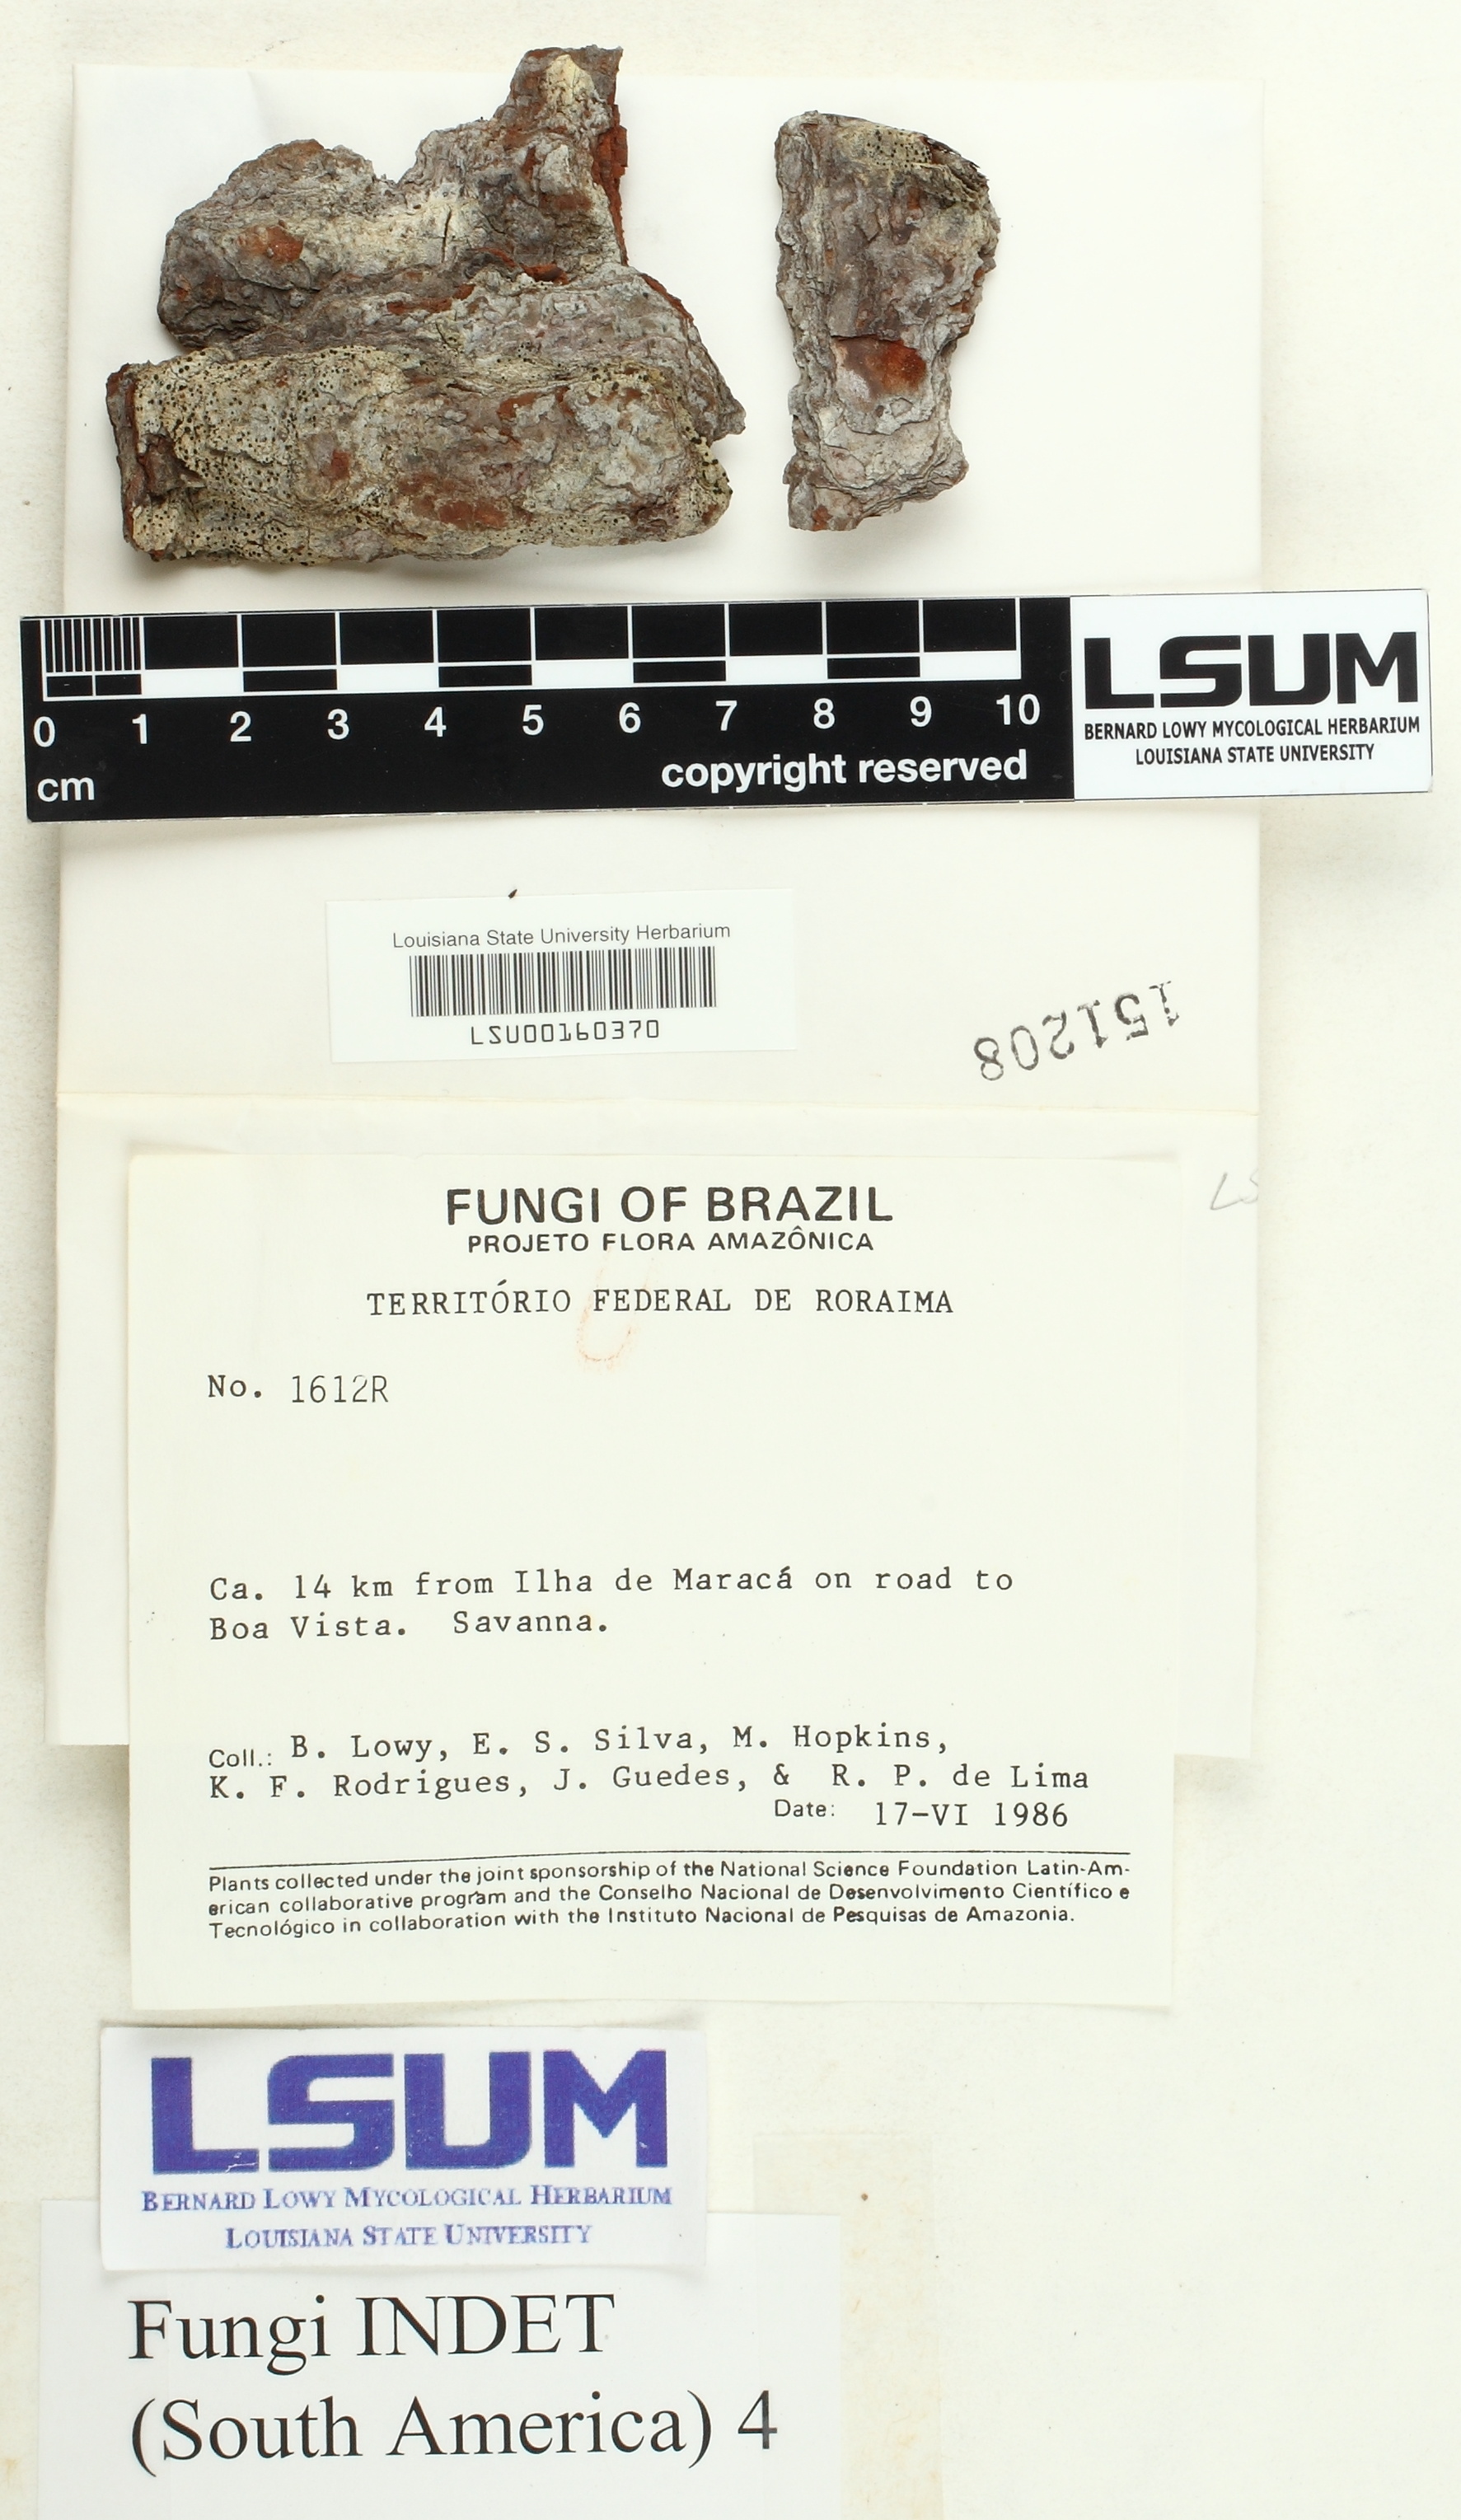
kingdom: Fungi
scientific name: Fungi
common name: Fungi
